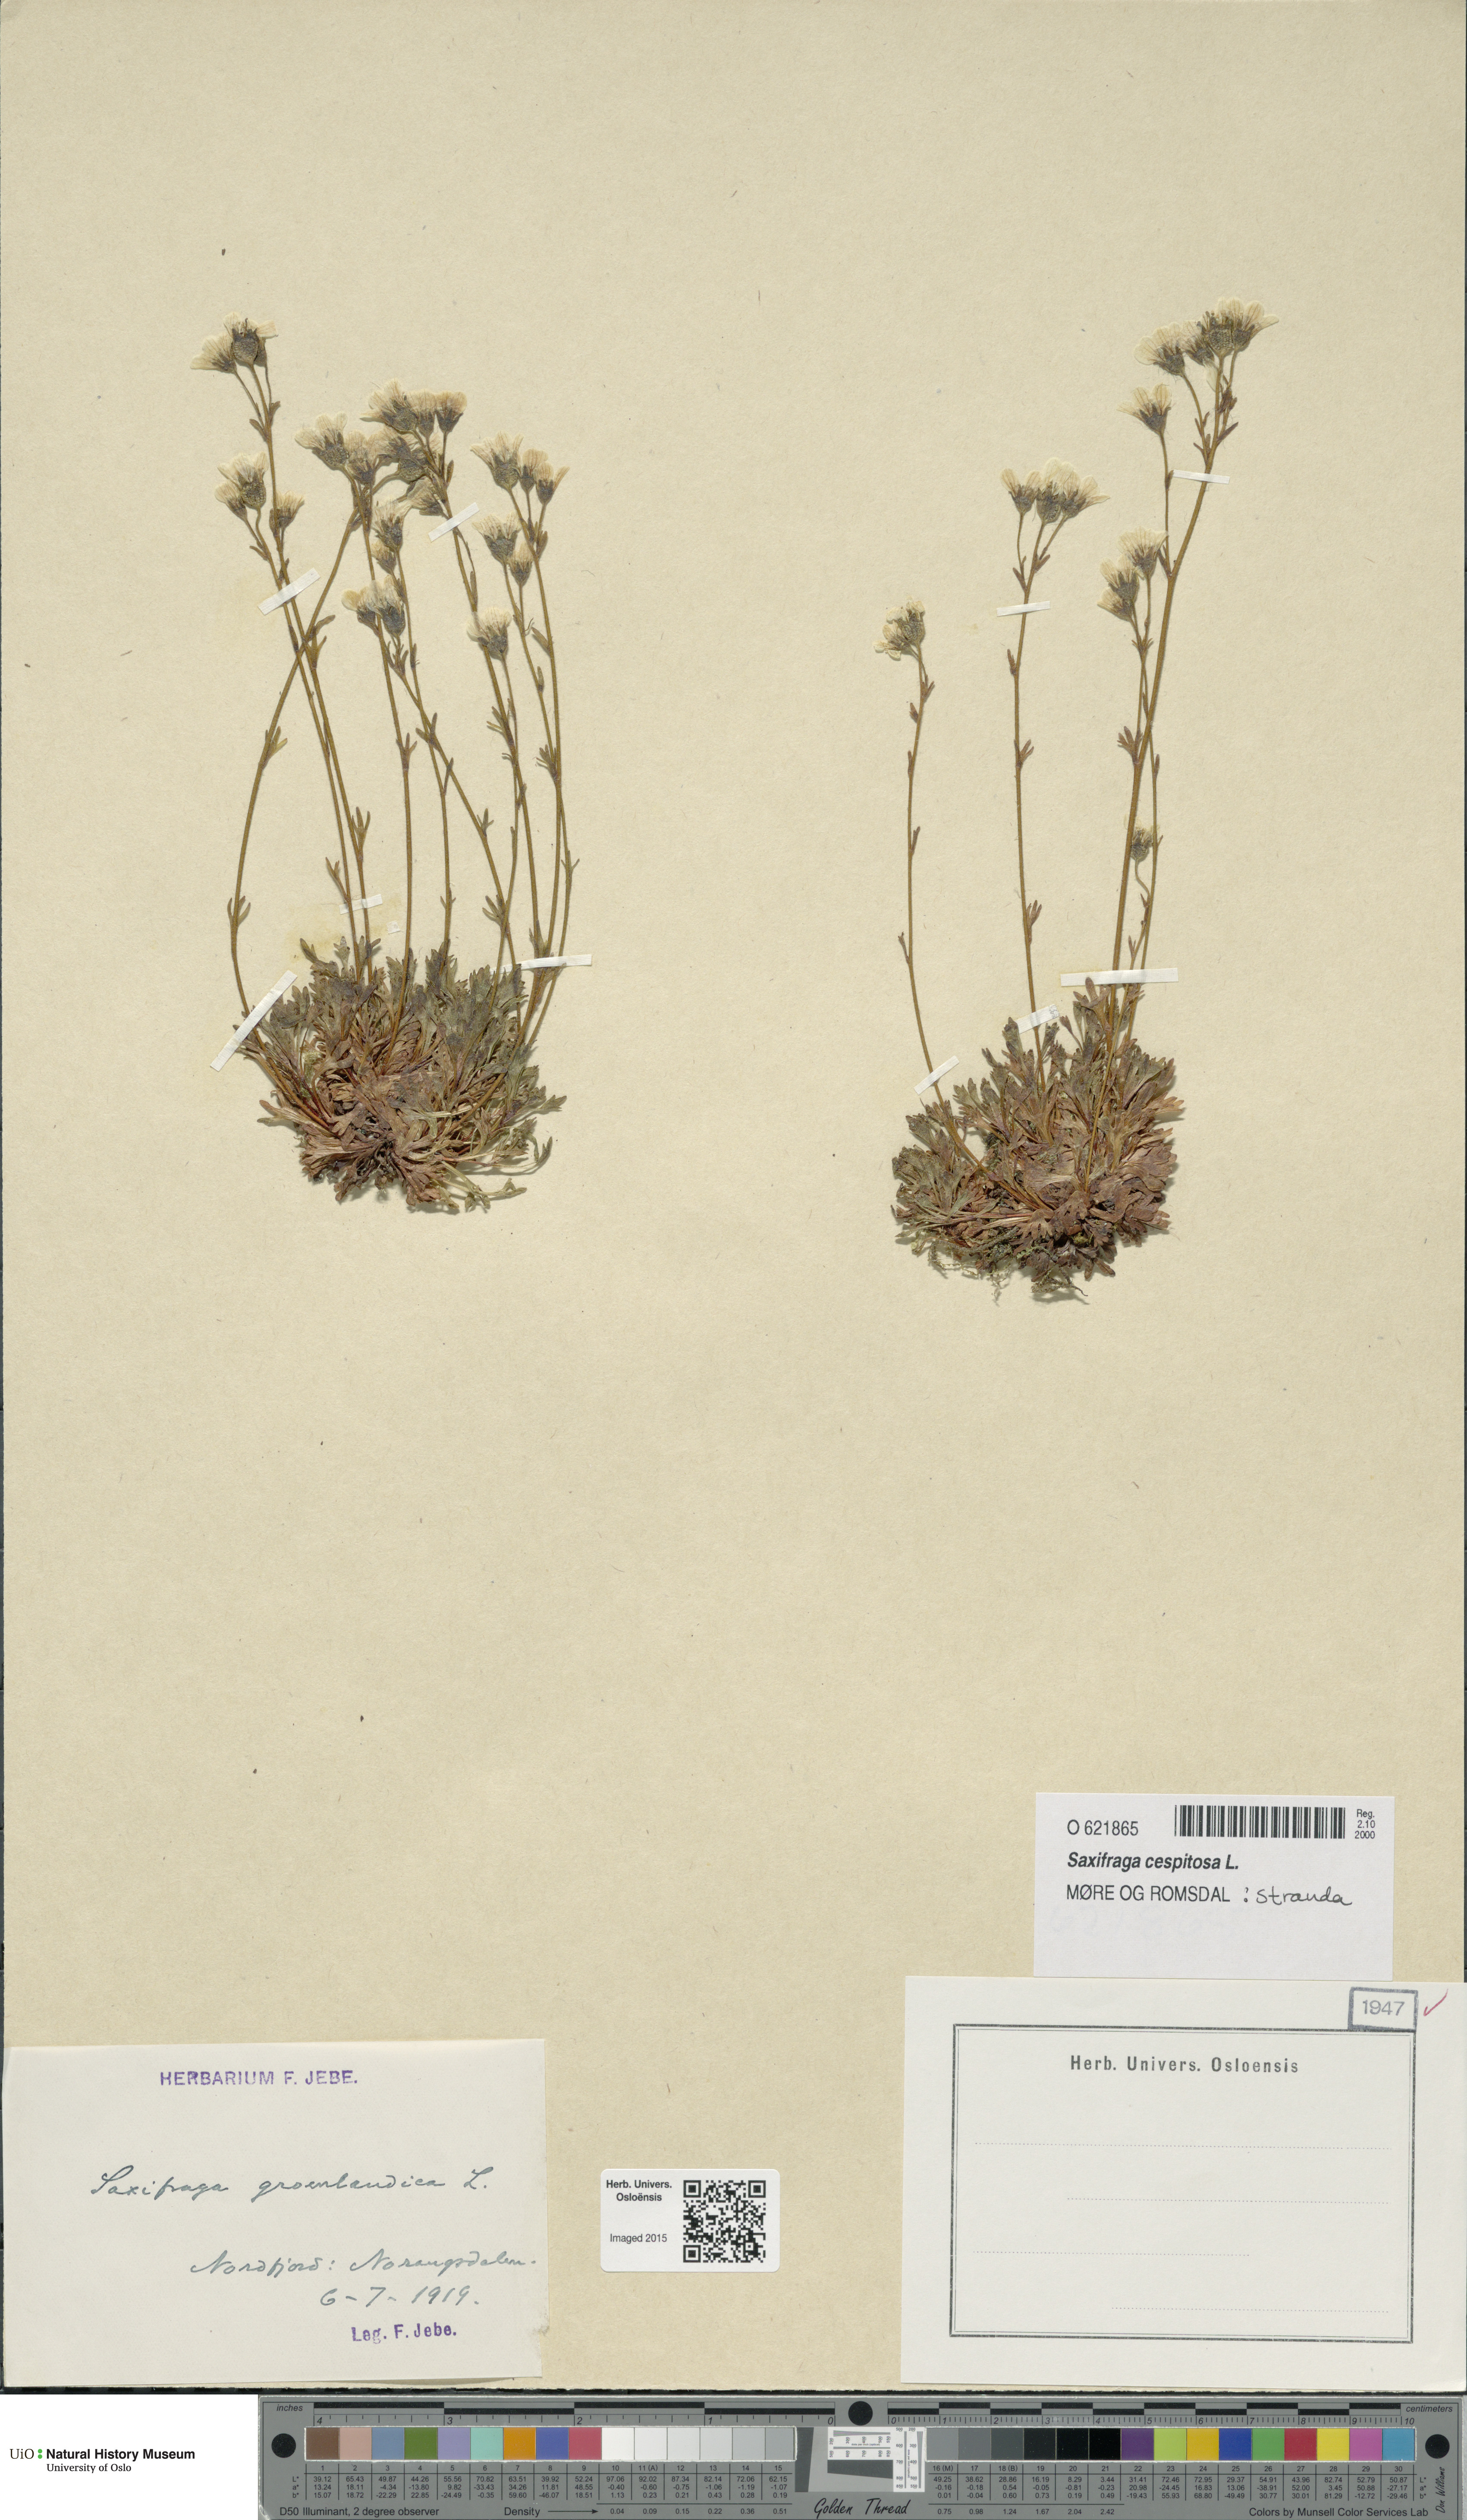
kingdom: Plantae
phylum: Tracheophyta
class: Magnoliopsida
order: Saxifragales
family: Saxifragaceae
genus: Saxifraga
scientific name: Saxifraga cespitosa
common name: Tufted saxifrage
